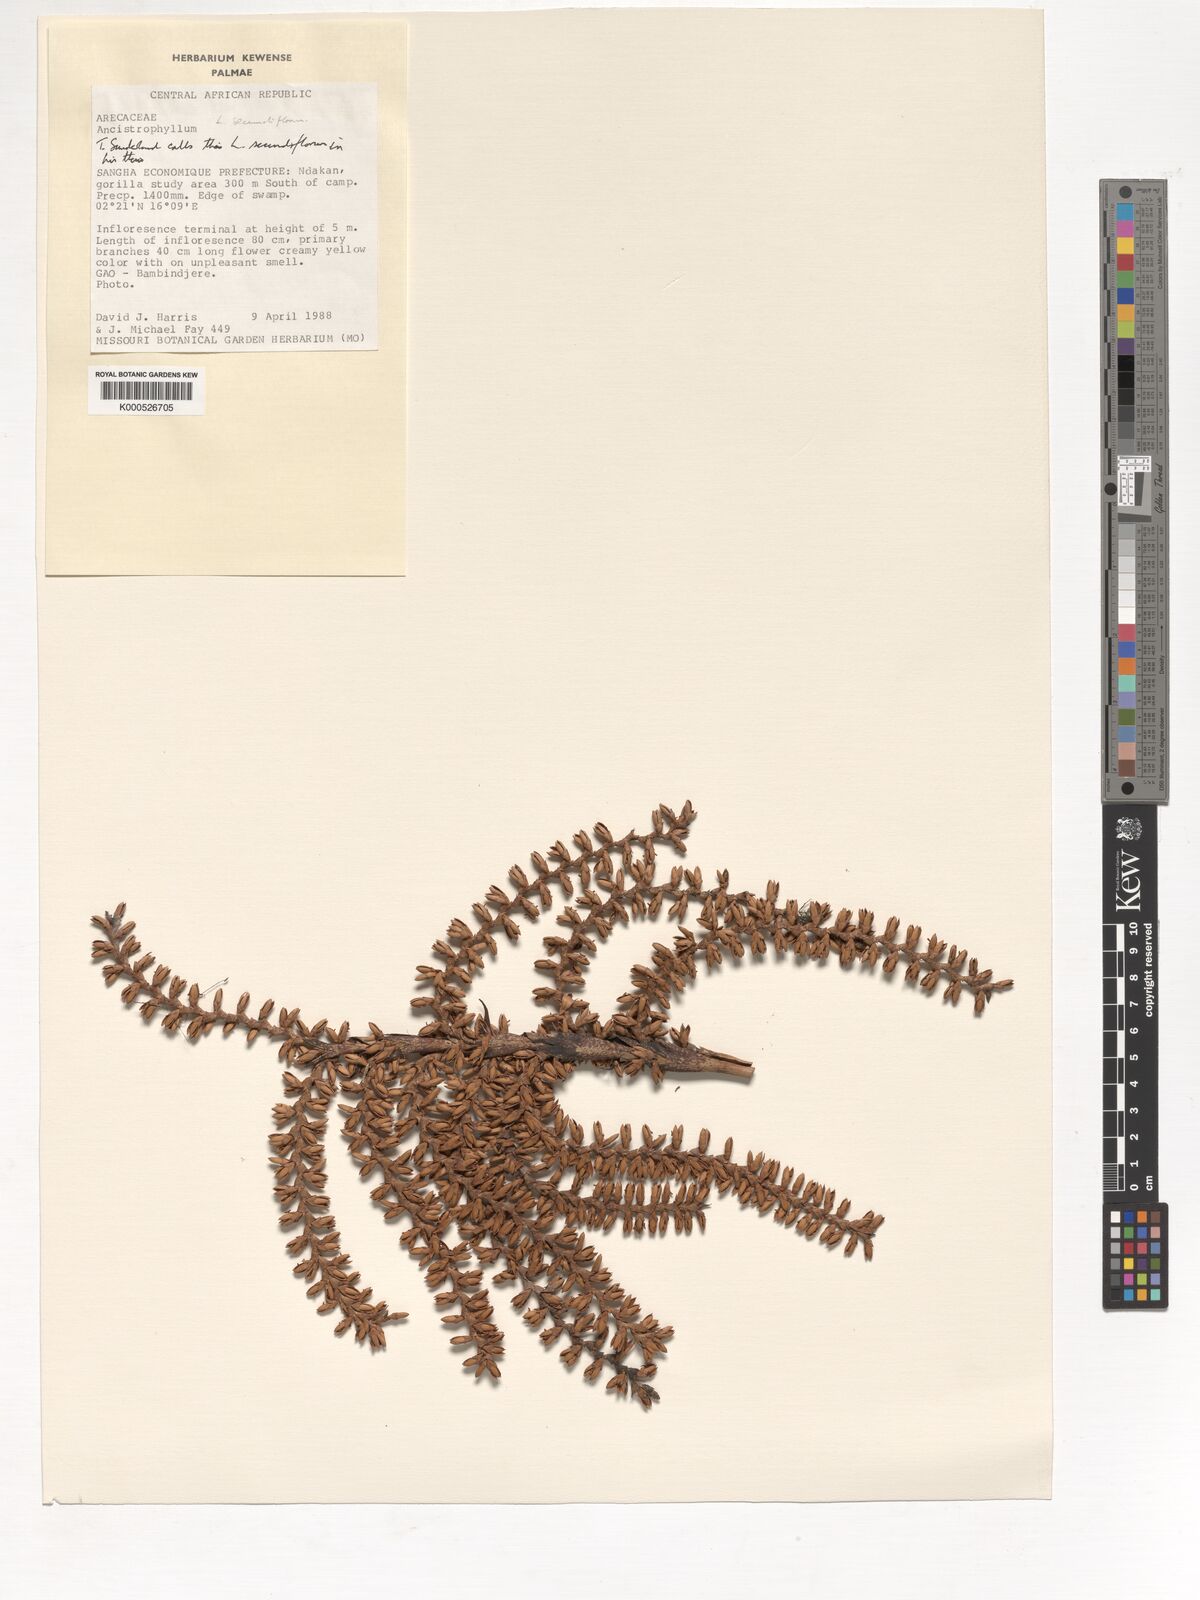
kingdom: Plantae
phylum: Tracheophyta
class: Liliopsida
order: Arecales
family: Arecaceae
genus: Laccosperma
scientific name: Laccosperma secundiflorum
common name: Rattan
